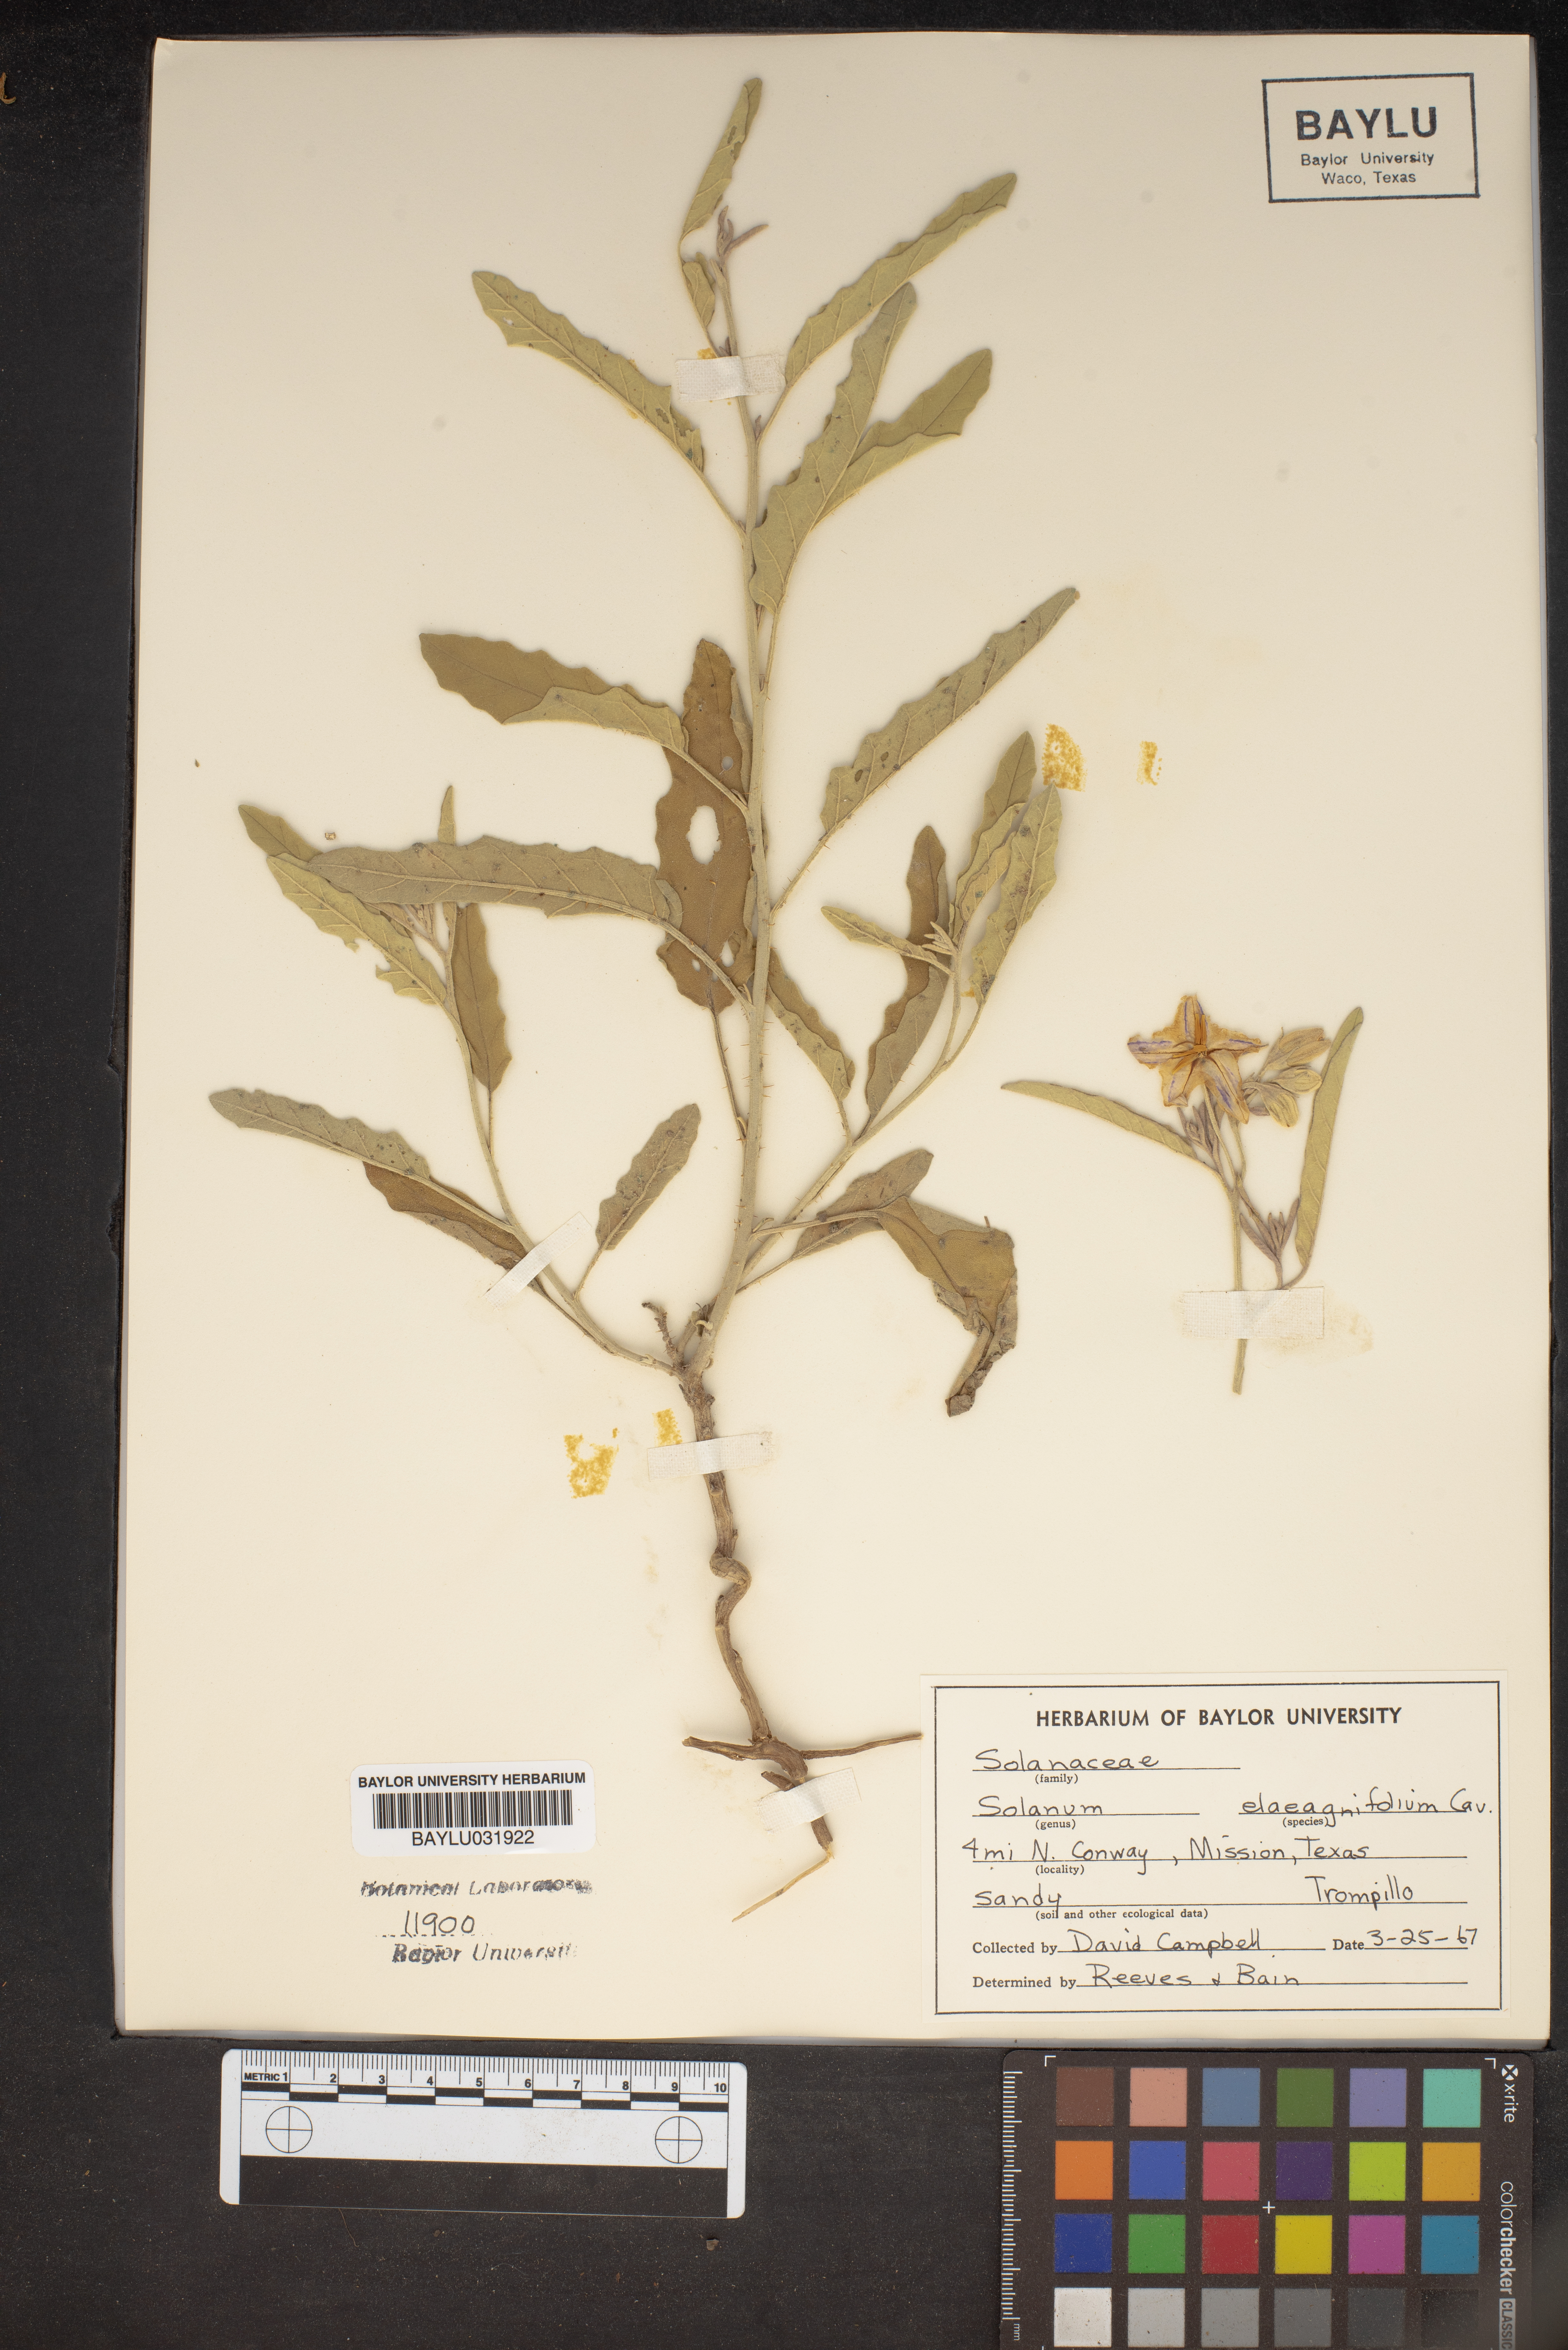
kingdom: Plantae
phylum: Tracheophyta
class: Magnoliopsida
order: Solanales
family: Solanaceae
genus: Solanum
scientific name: Solanum elaeagnifolium
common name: Silverleaf nightshade
